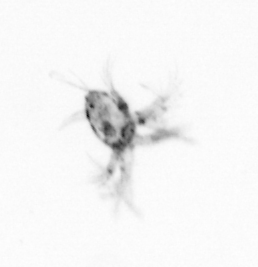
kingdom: Animalia
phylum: Arthropoda
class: Copepoda
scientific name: Copepoda
